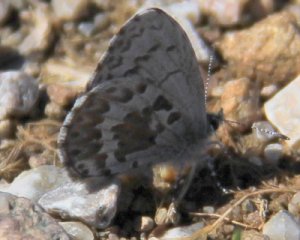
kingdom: Animalia
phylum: Arthropoda
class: Insecta
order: Lepidoptera
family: Lycaenidae
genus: Celastrina
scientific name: Celastrina lucia
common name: Northern Spring Azure
